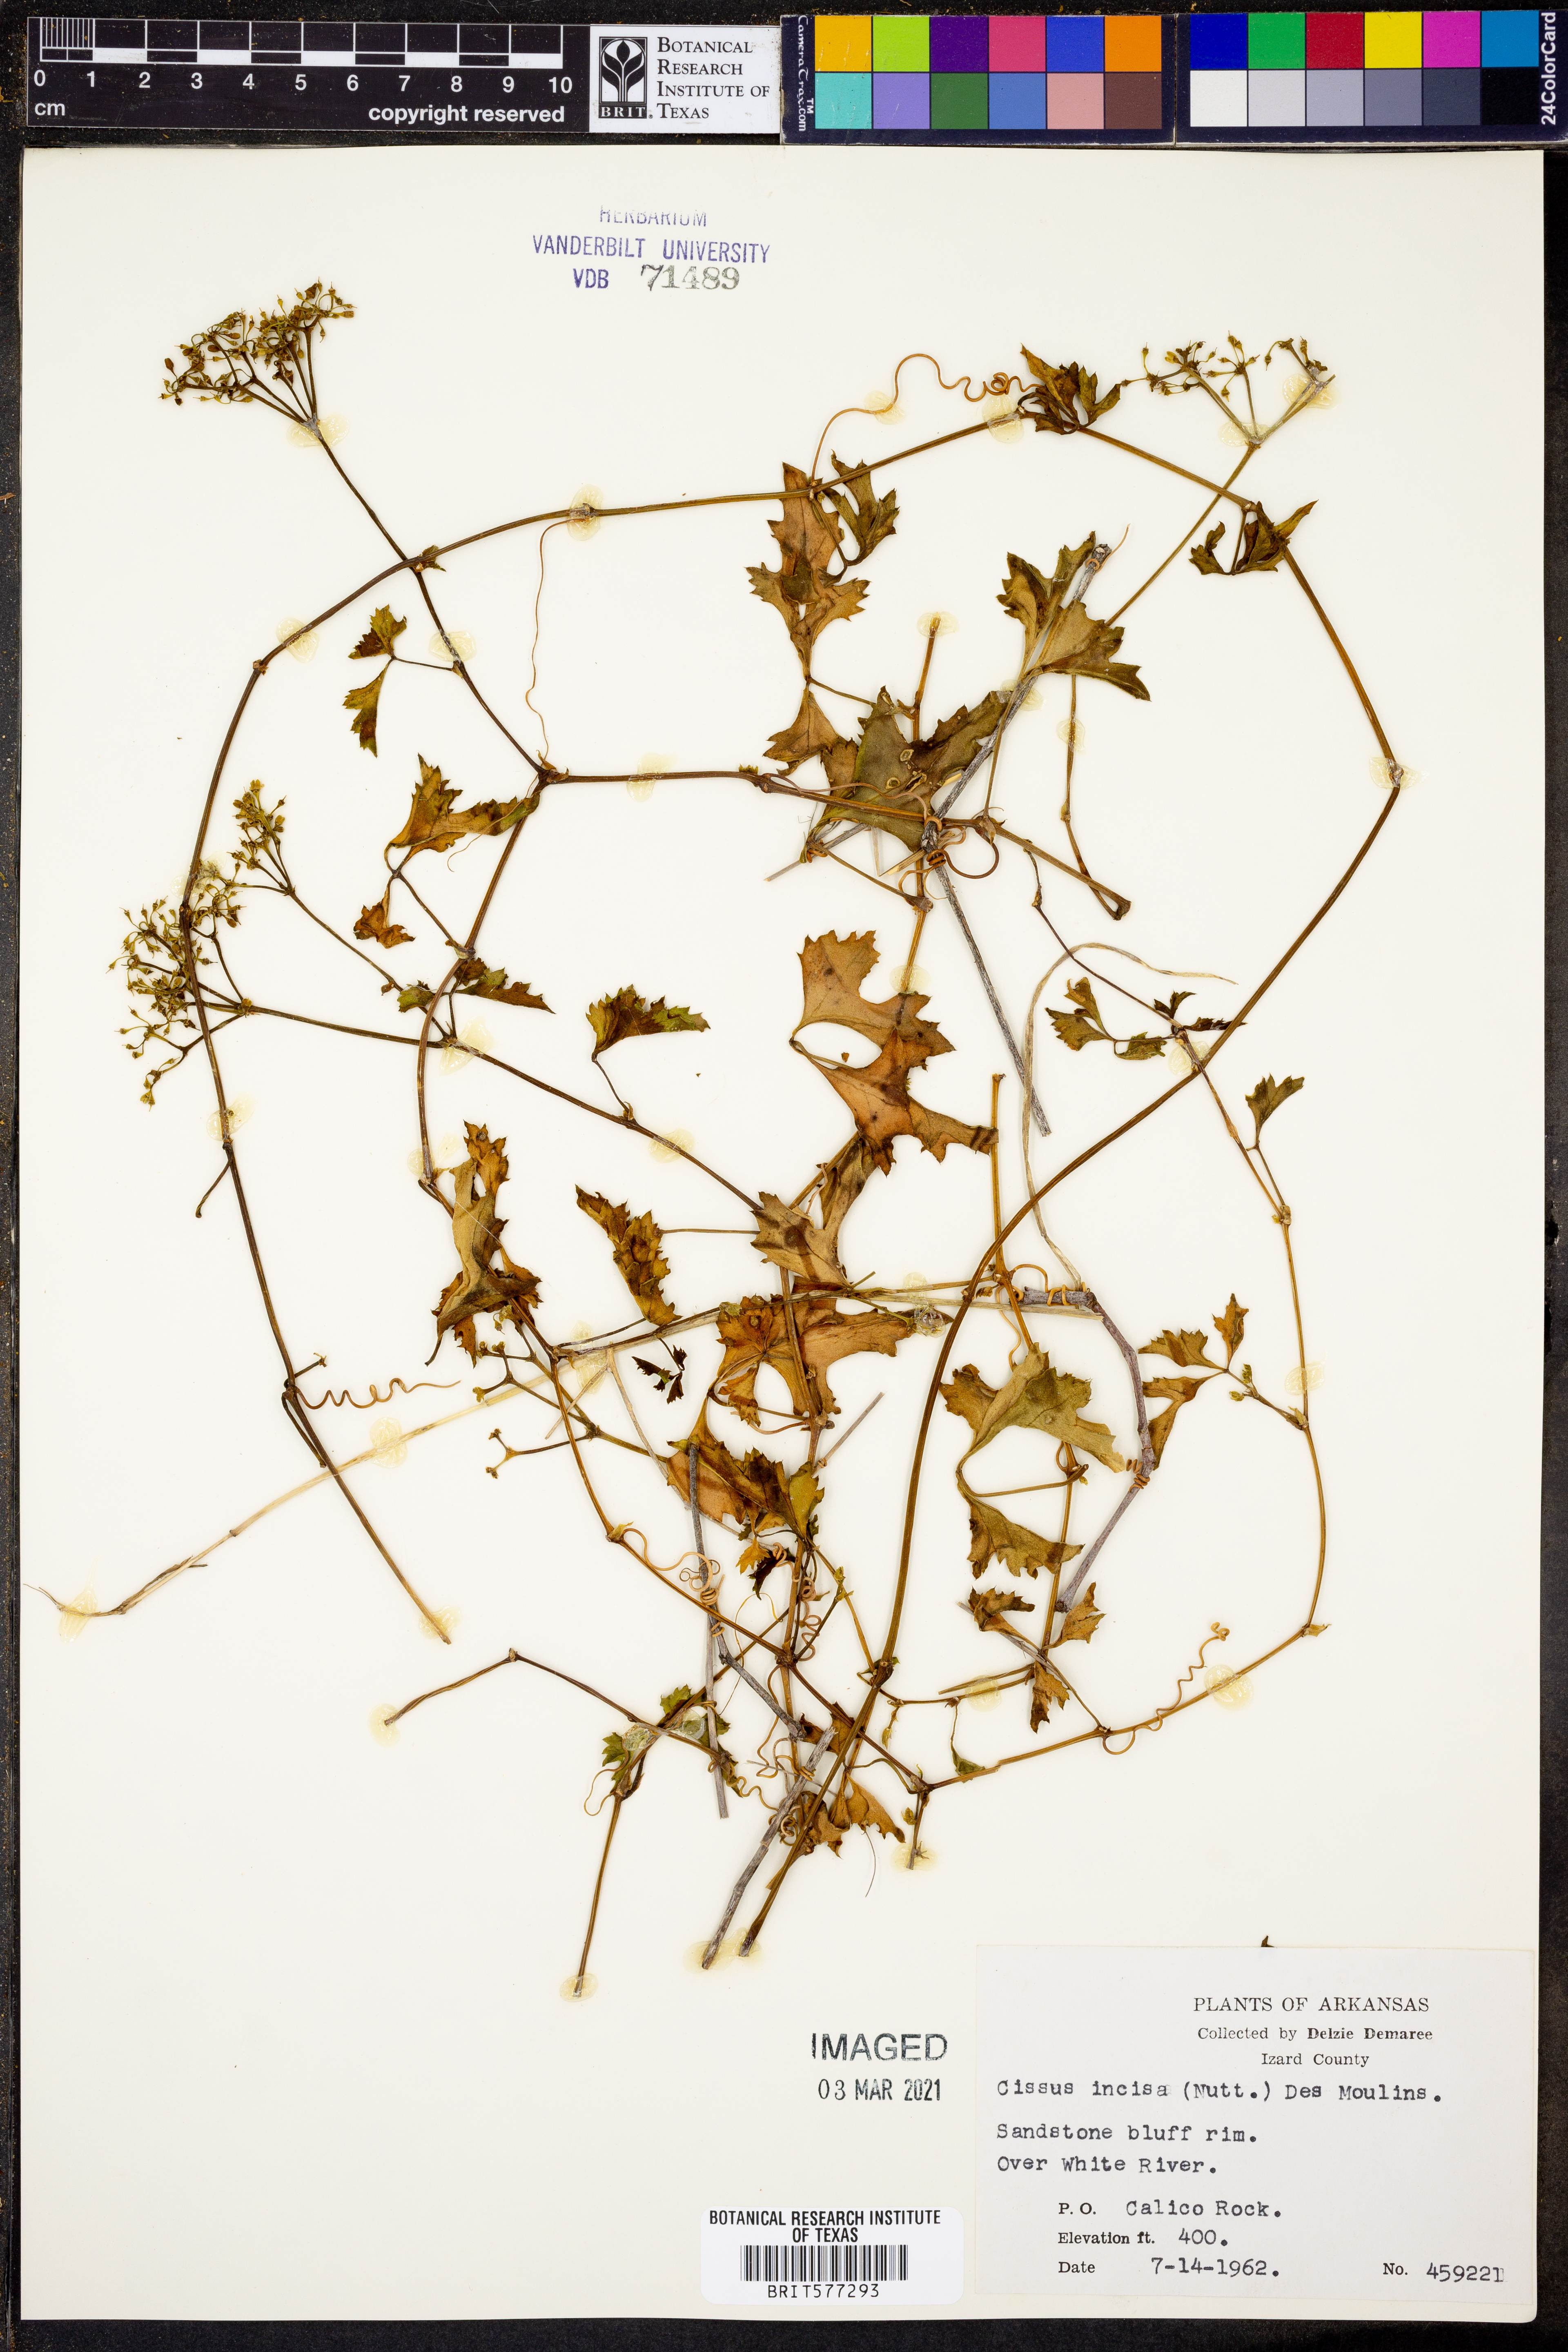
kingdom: Plantae
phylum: Tracheophyta
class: Magnoliopsida
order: Vitales
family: Vitaceae
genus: Cissus
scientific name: Cissus trifoliata
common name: Vine-sorrel
